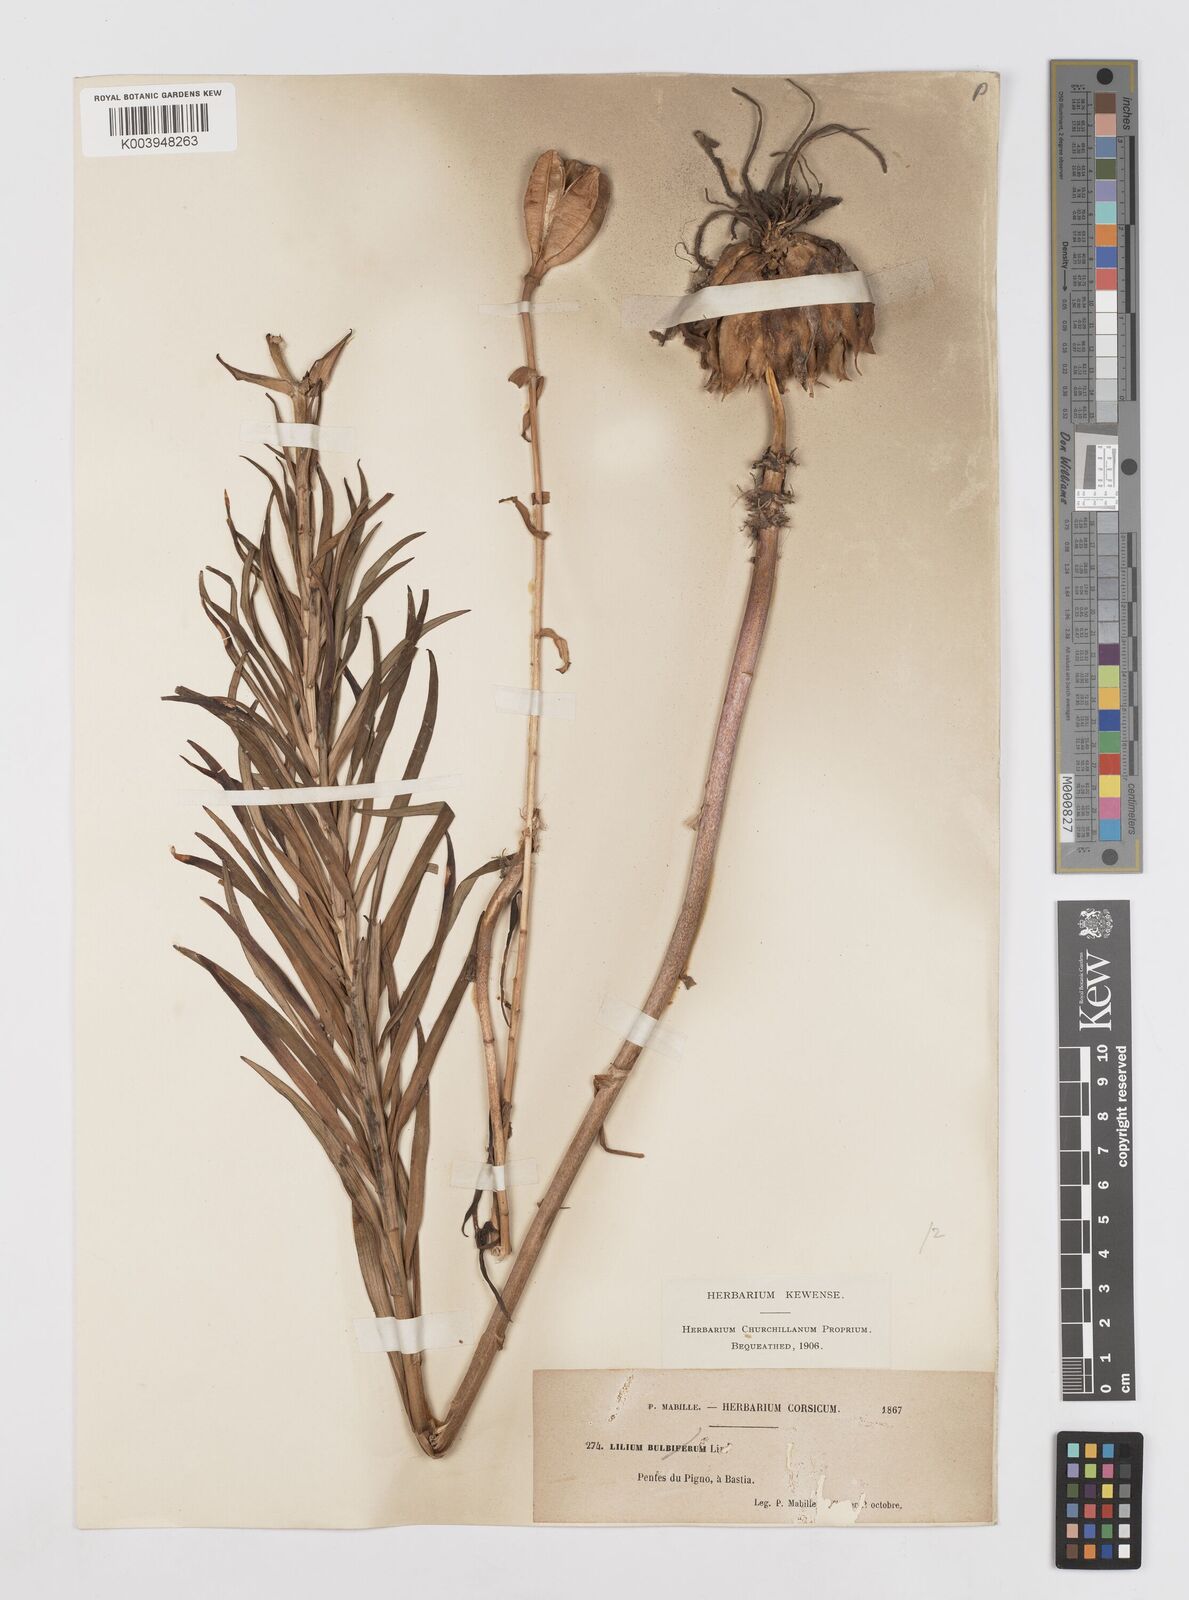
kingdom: Plantae
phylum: Tracheophyta
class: Liliopsida
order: Liliales
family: Liliaceae
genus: Lilium
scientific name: Lilium bulbiferum
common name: Orange lily
